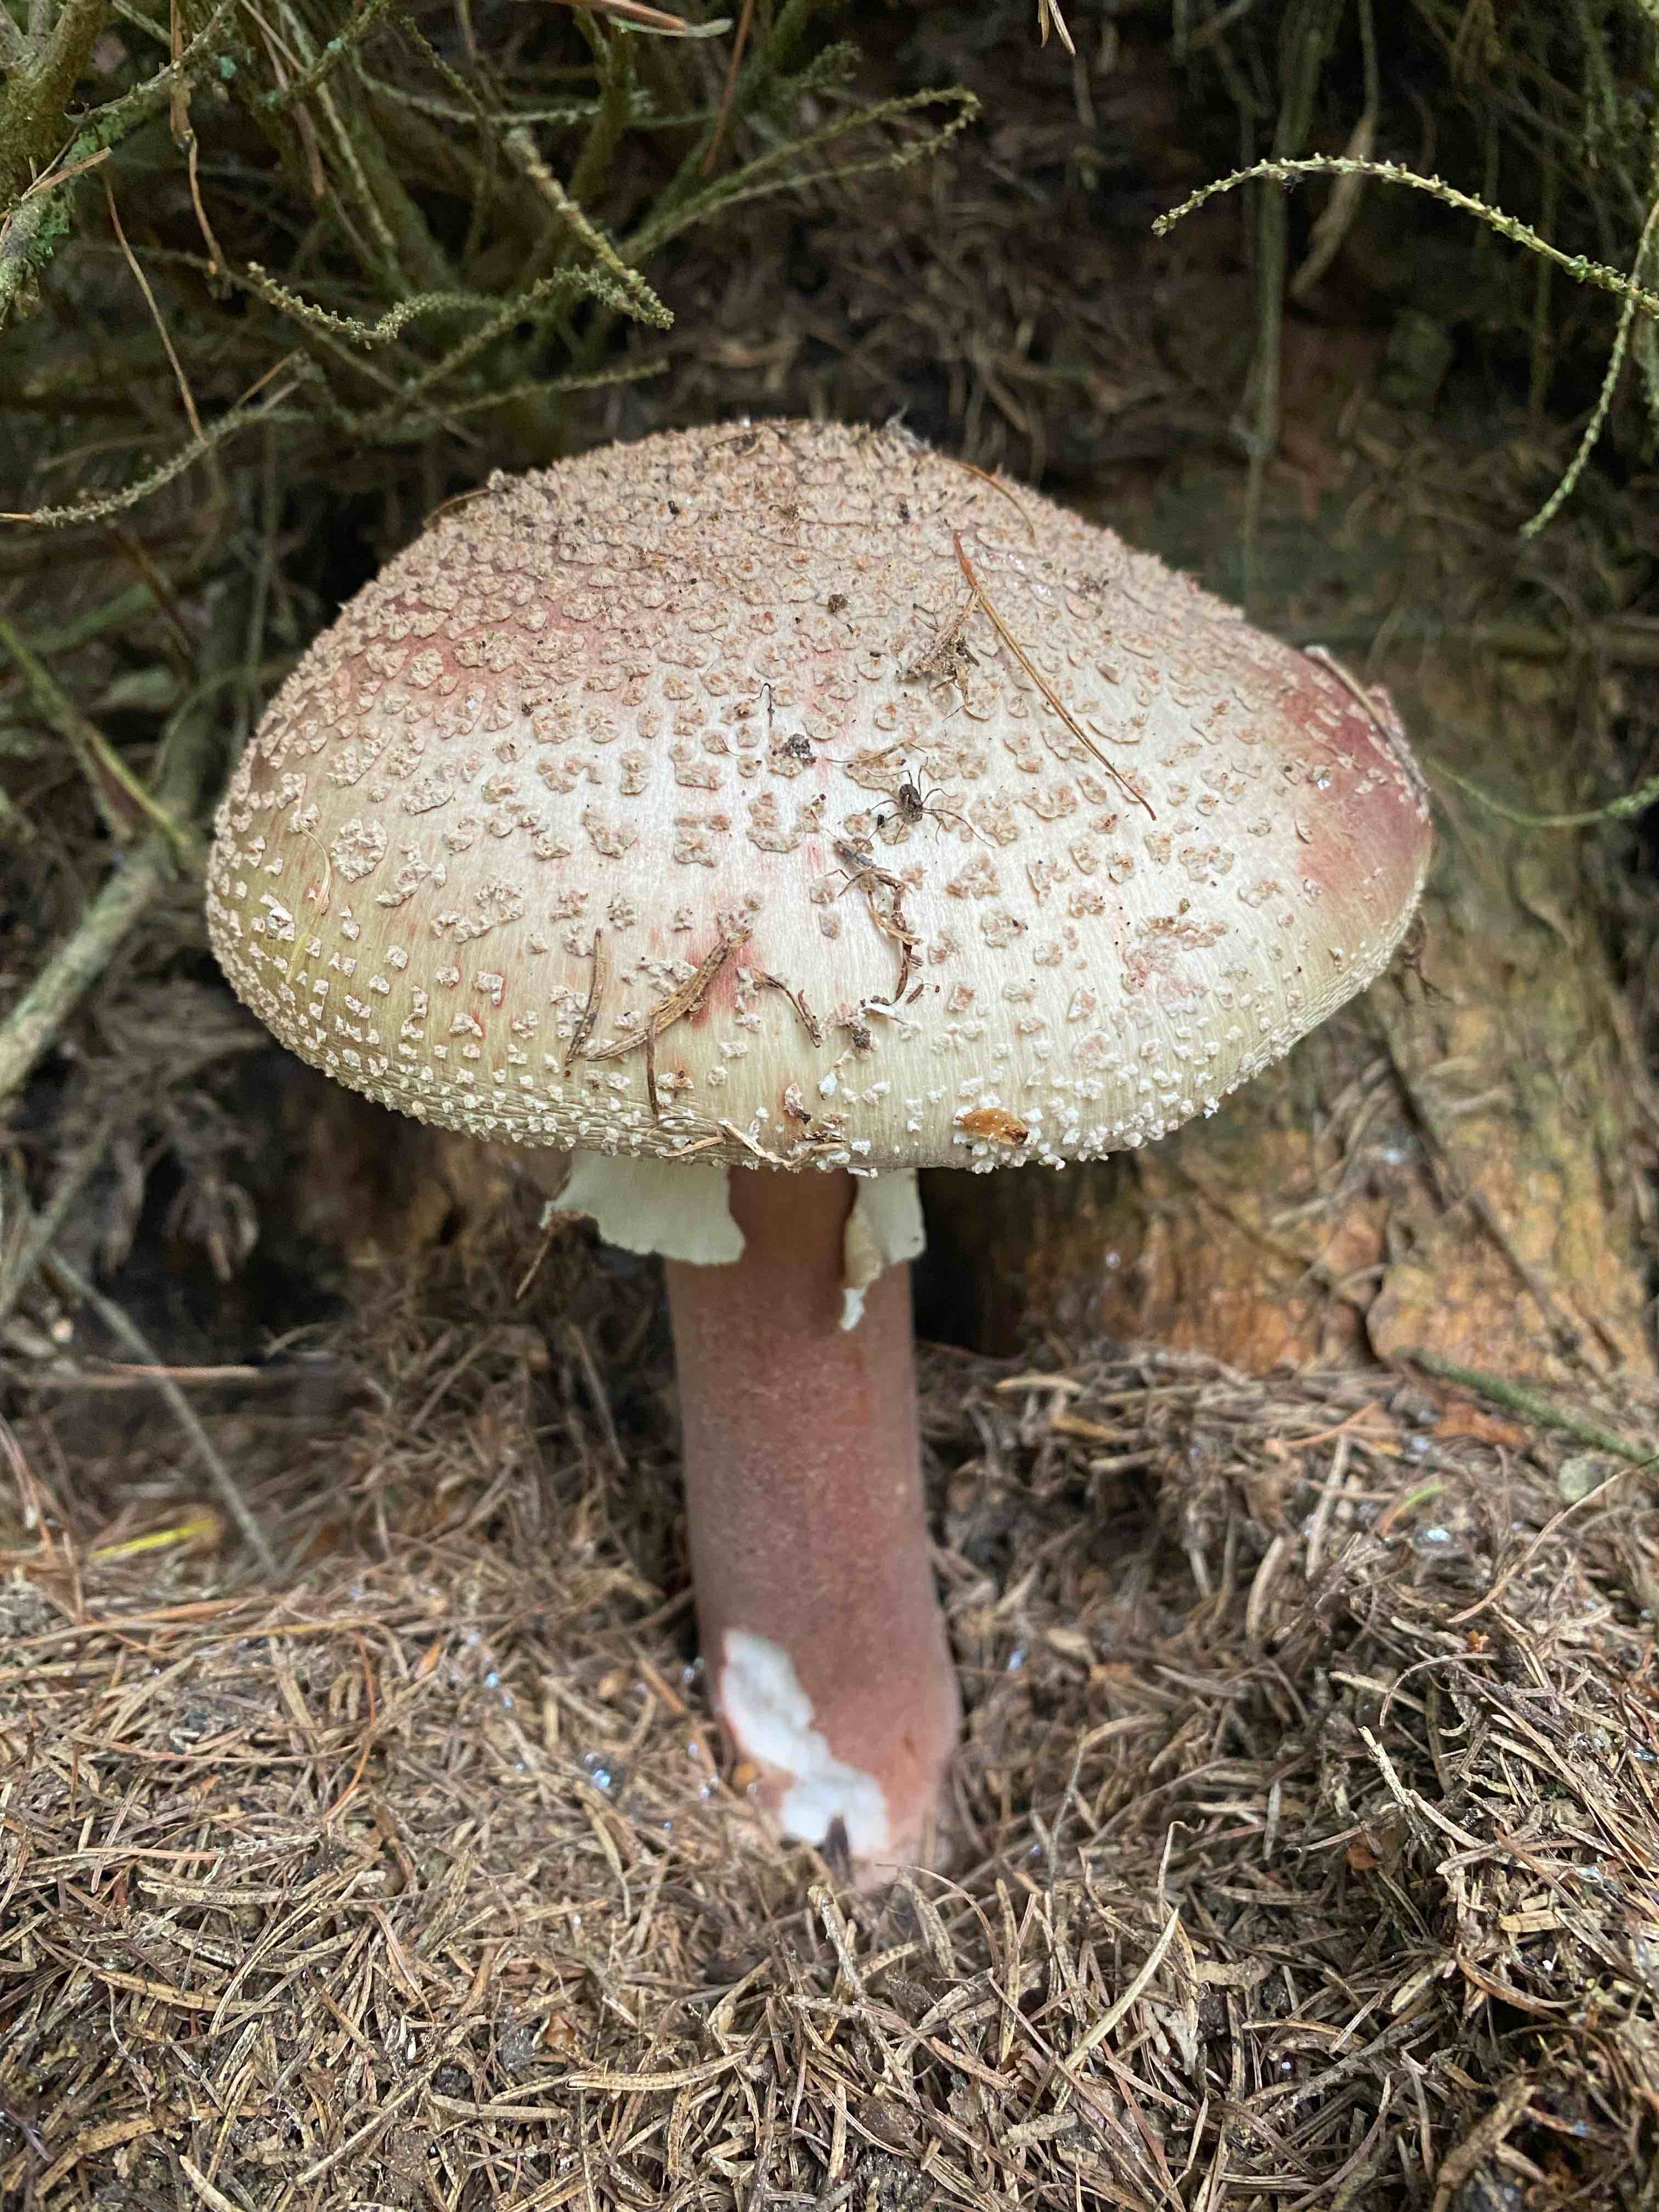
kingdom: Fungi
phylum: Basidiomycota
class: Agaricomycetes
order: Agaricales
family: Amanitaceae
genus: Amanita
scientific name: Amanita rubescens
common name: rødmende fluesvamp
